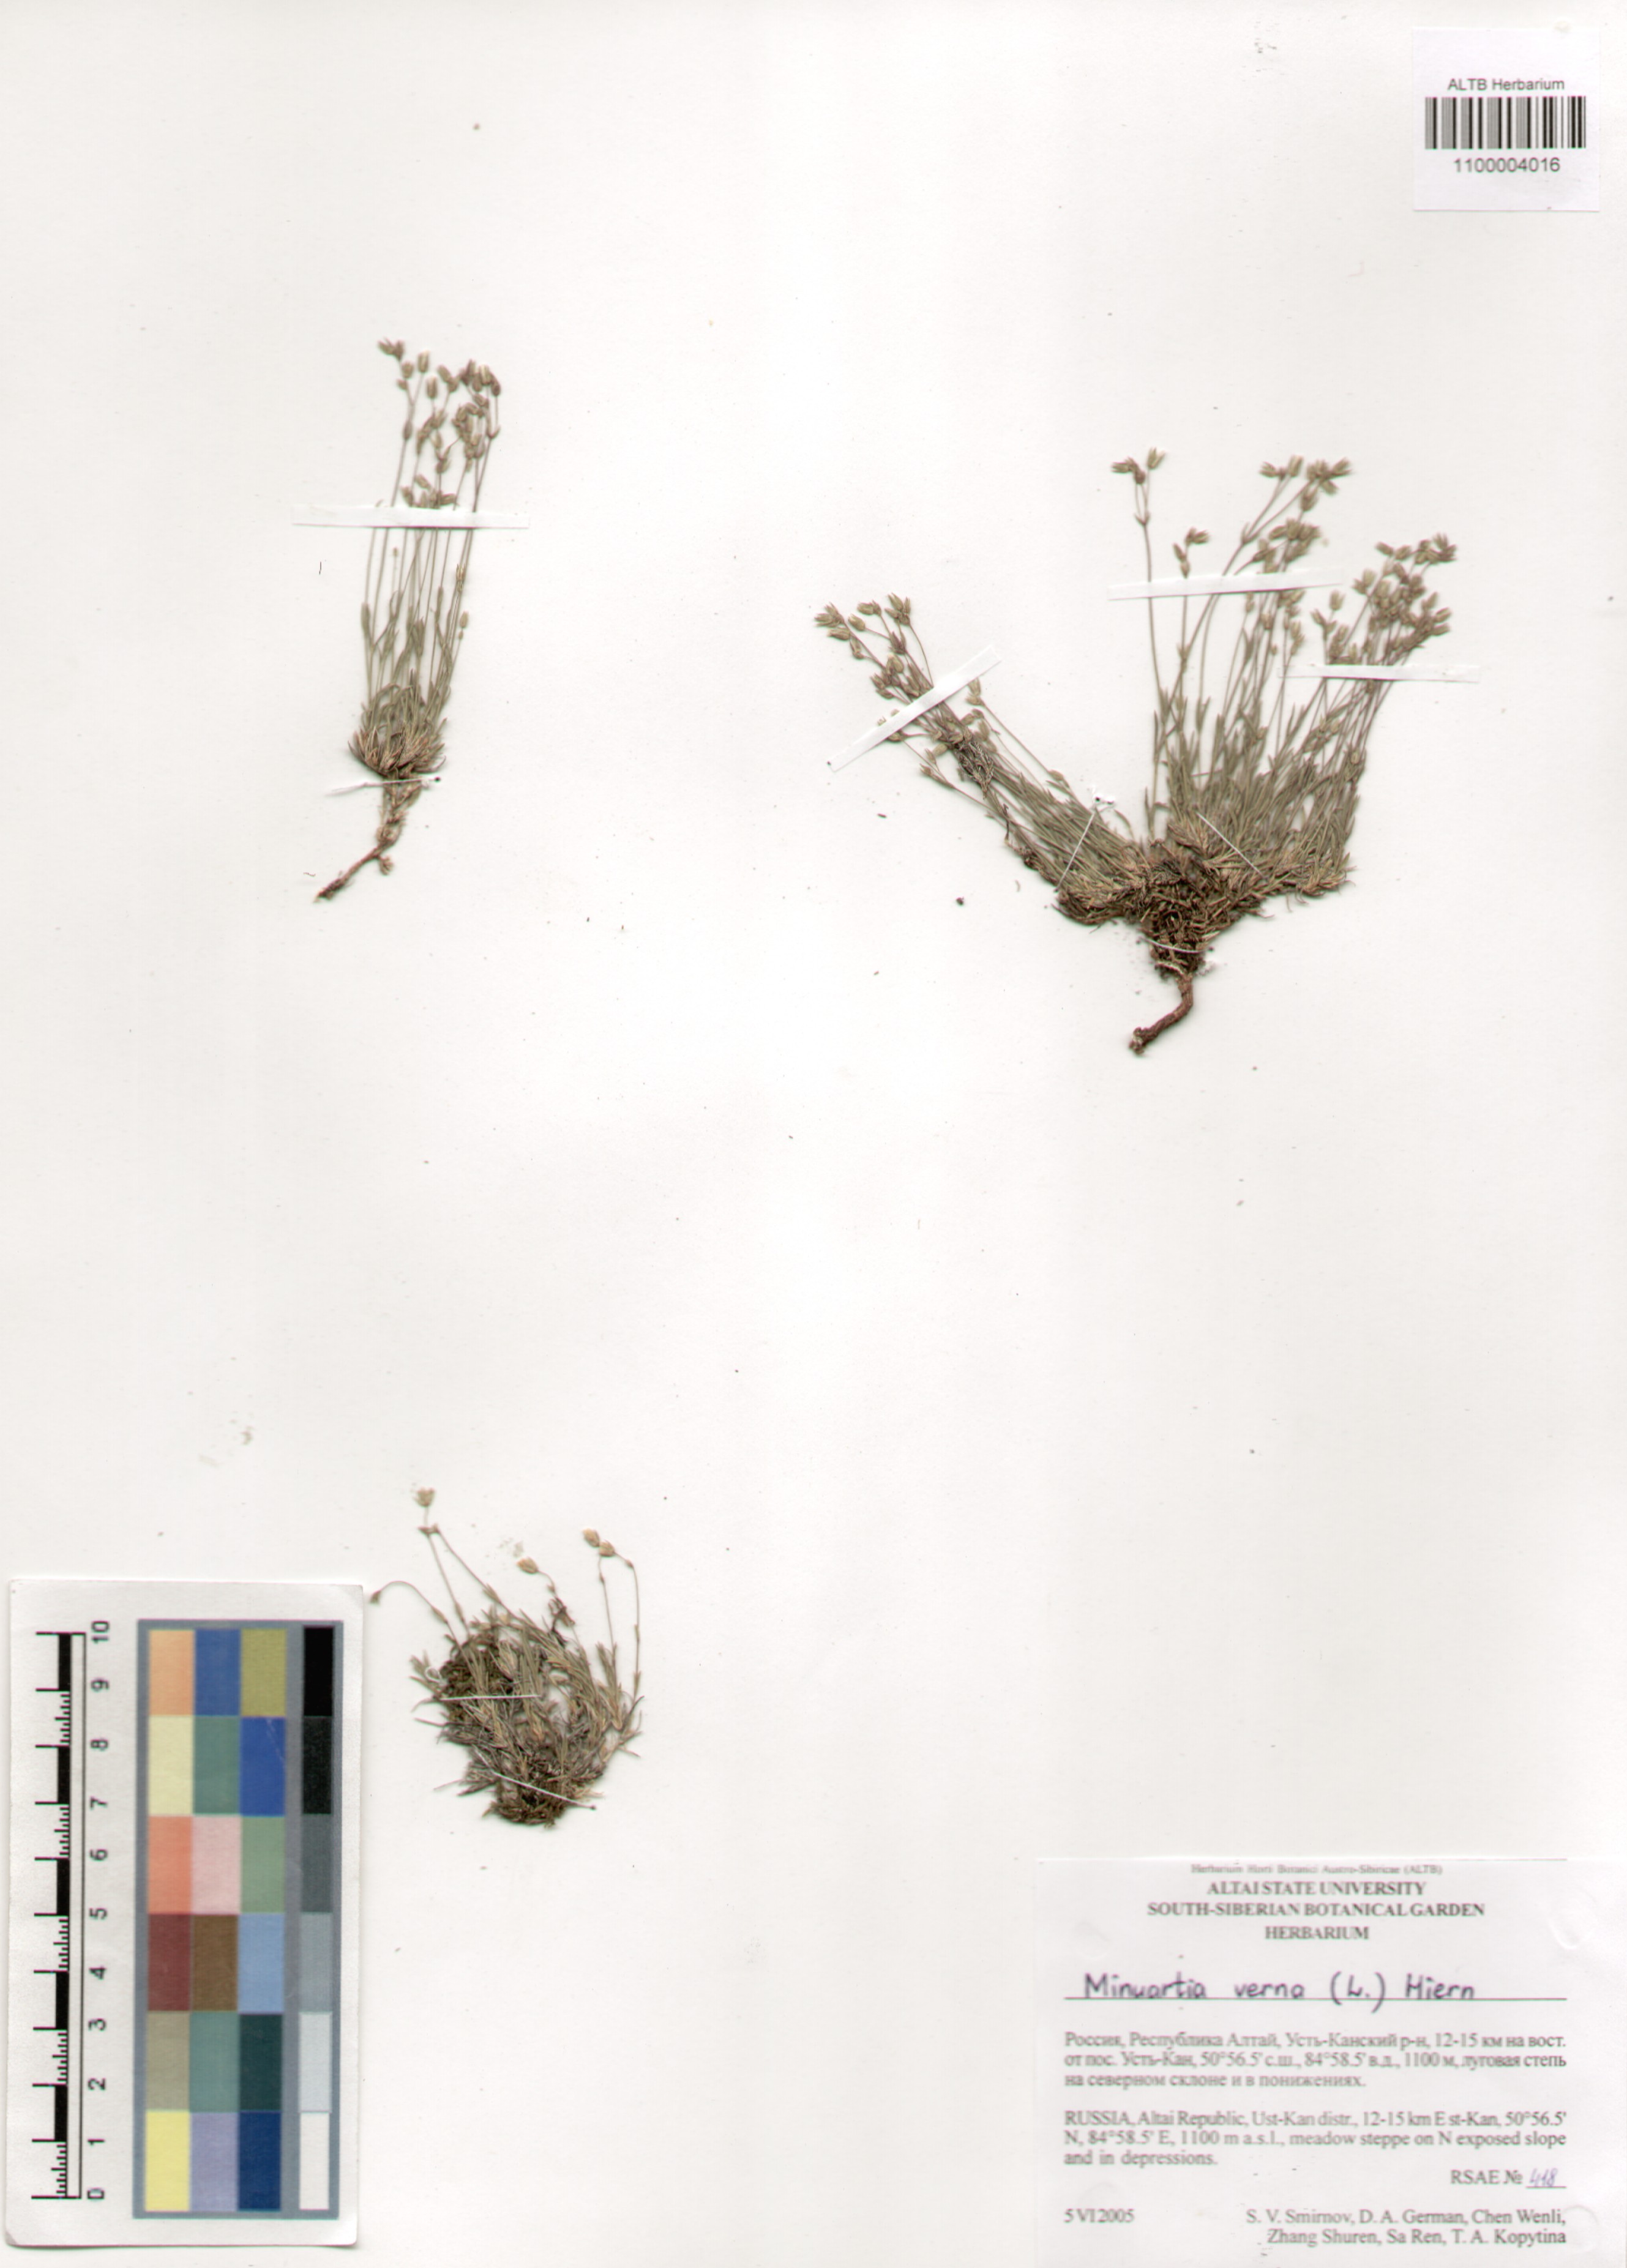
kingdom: Plantae
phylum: Tracheophyta
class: Magnoliopsida
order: Caryophyllales
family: Caryophyllaceae
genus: Sabulina
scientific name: Sabulina verna
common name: Spring sandwort
